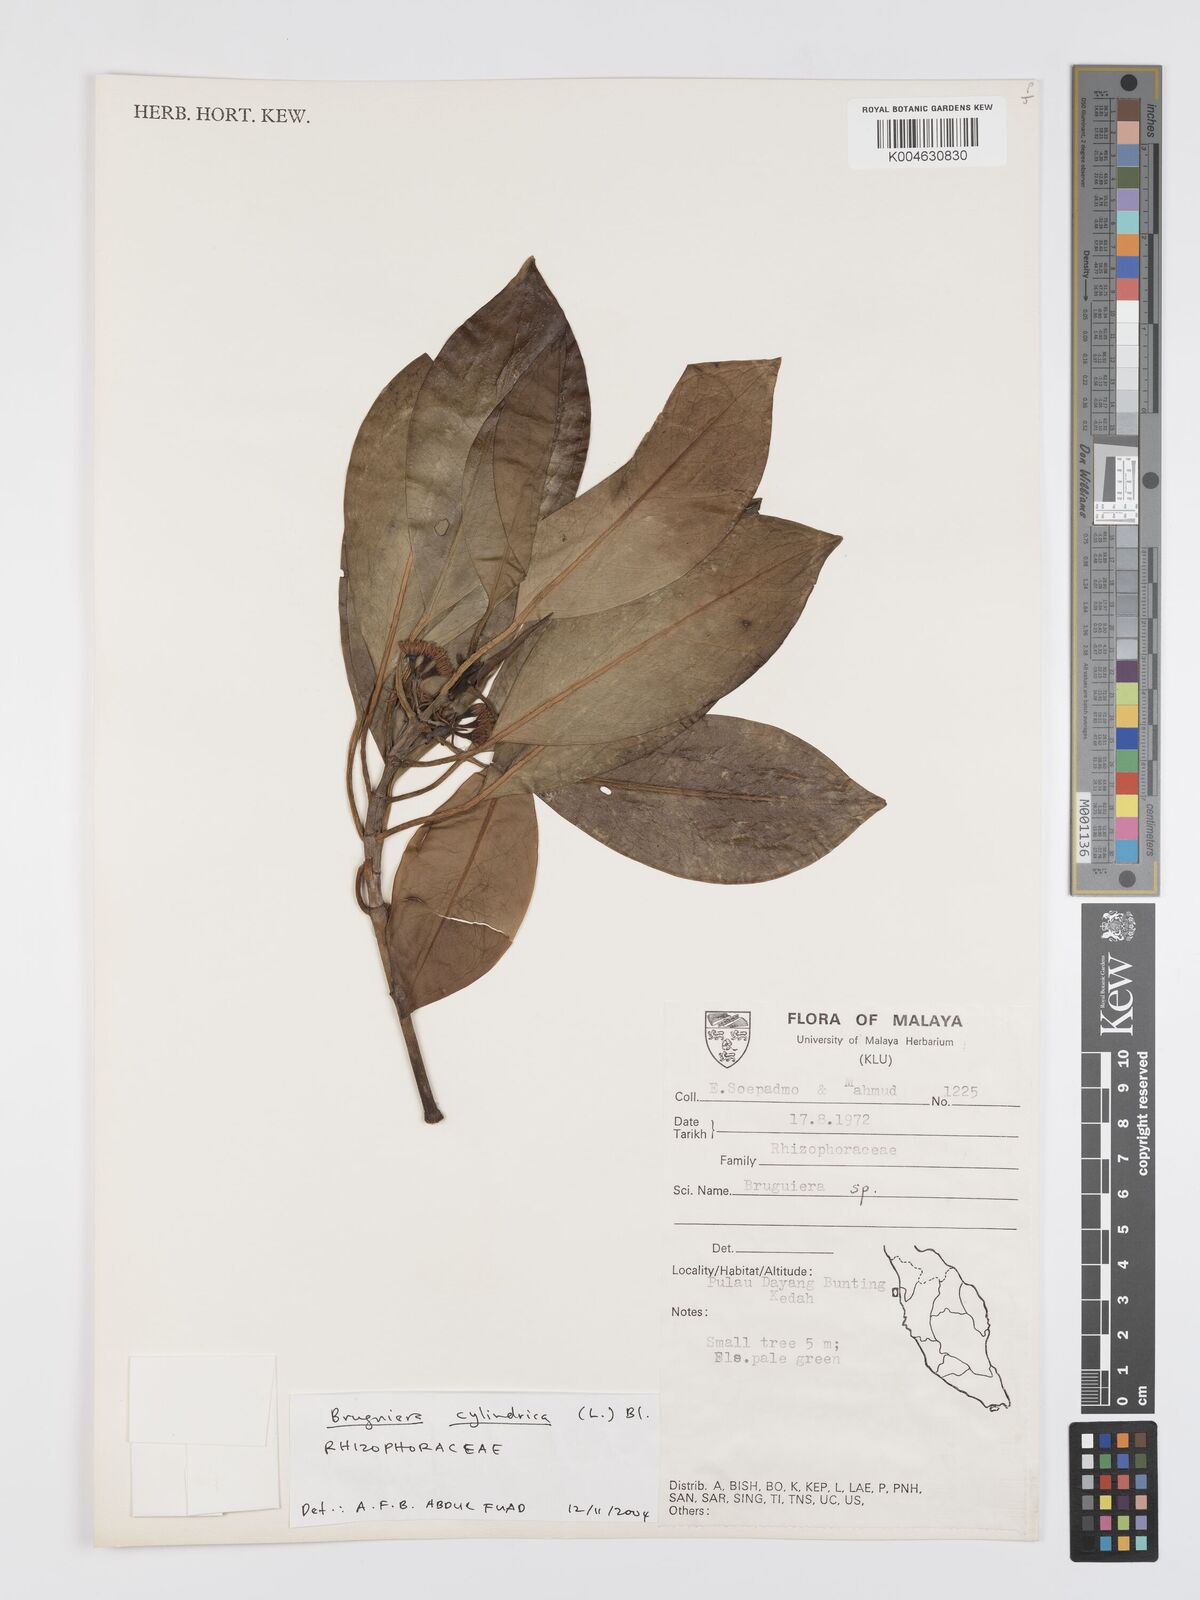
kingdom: Plantae
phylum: Tracheophyta
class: Magnoliopsida
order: Malpighiales
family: Rhizophoraceae
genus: Bruguiera
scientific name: Bruguiera
